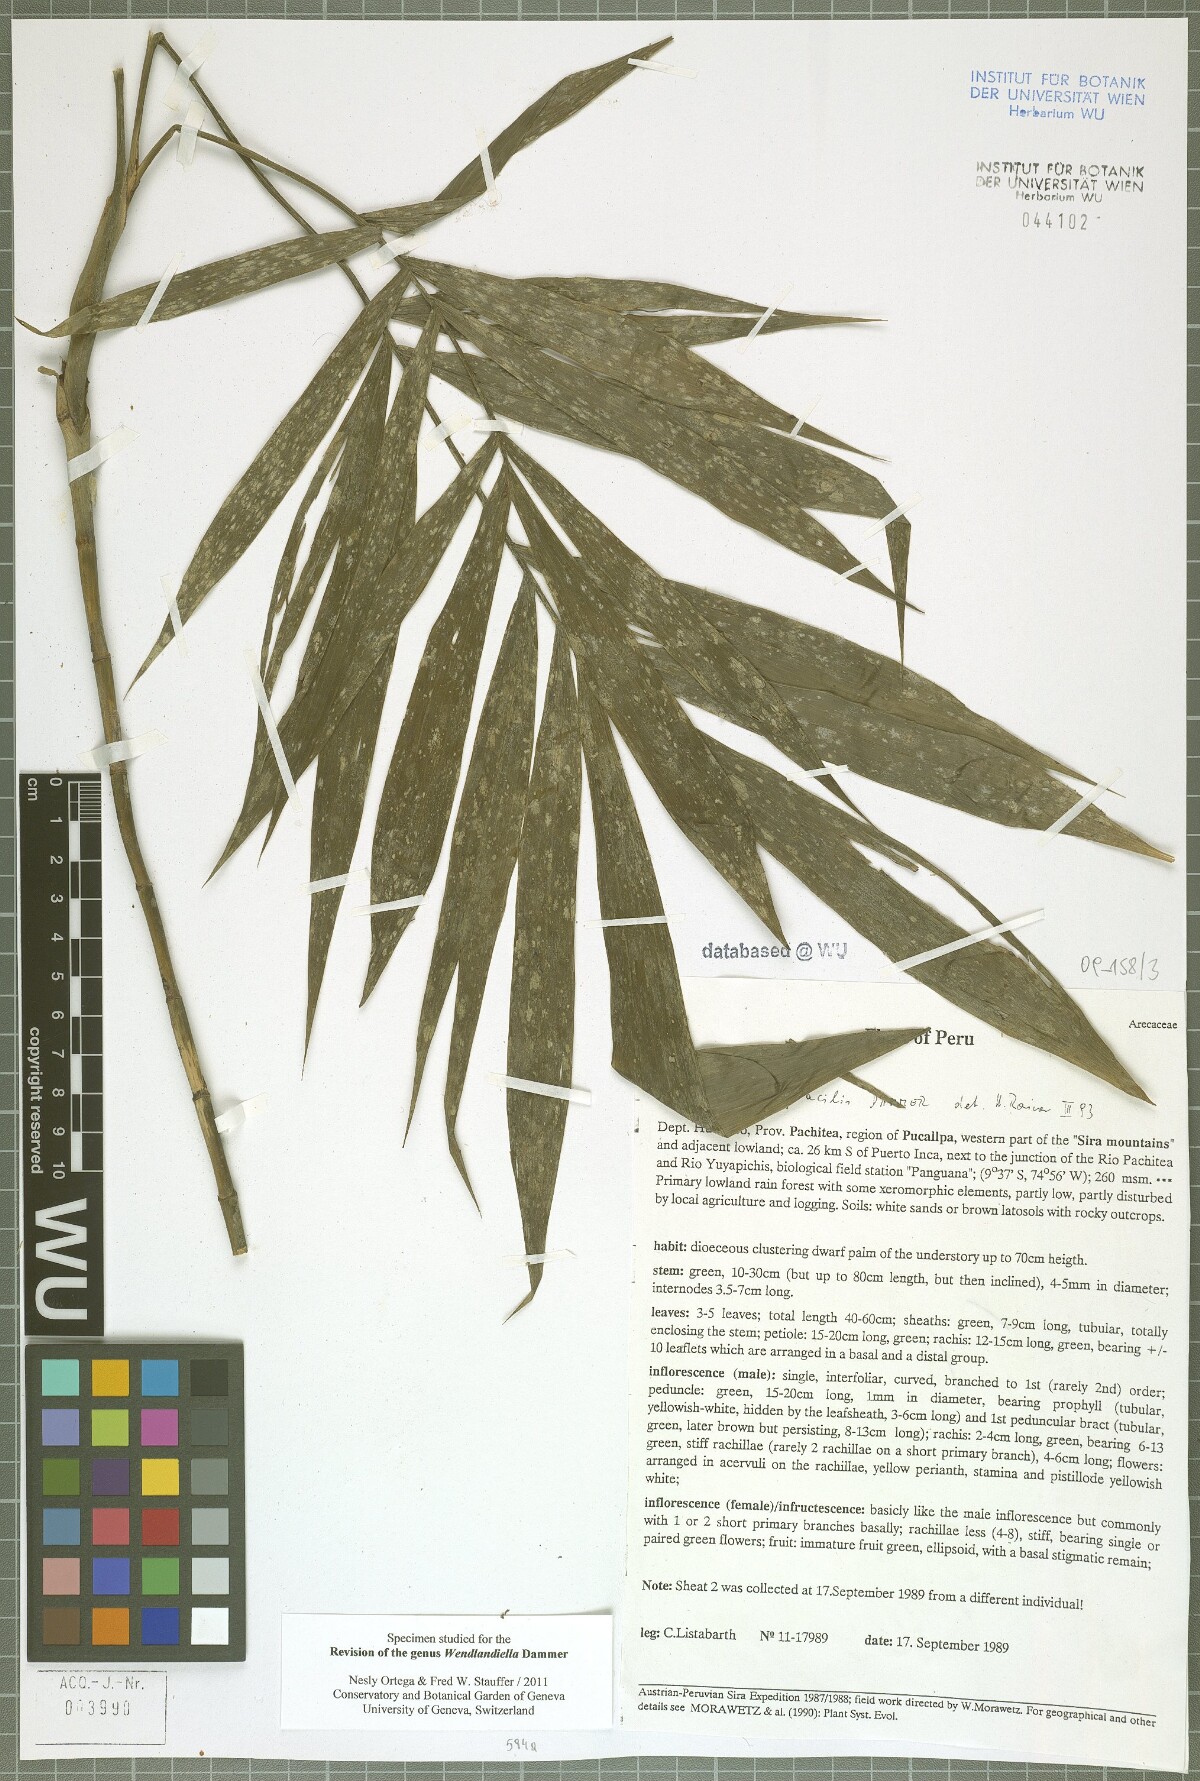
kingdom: Plantae
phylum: Tracheophyta
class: Liliopsida
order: Arecales
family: Arecaceae
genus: Wendlandiella
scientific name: Wendlandiella gracilis
